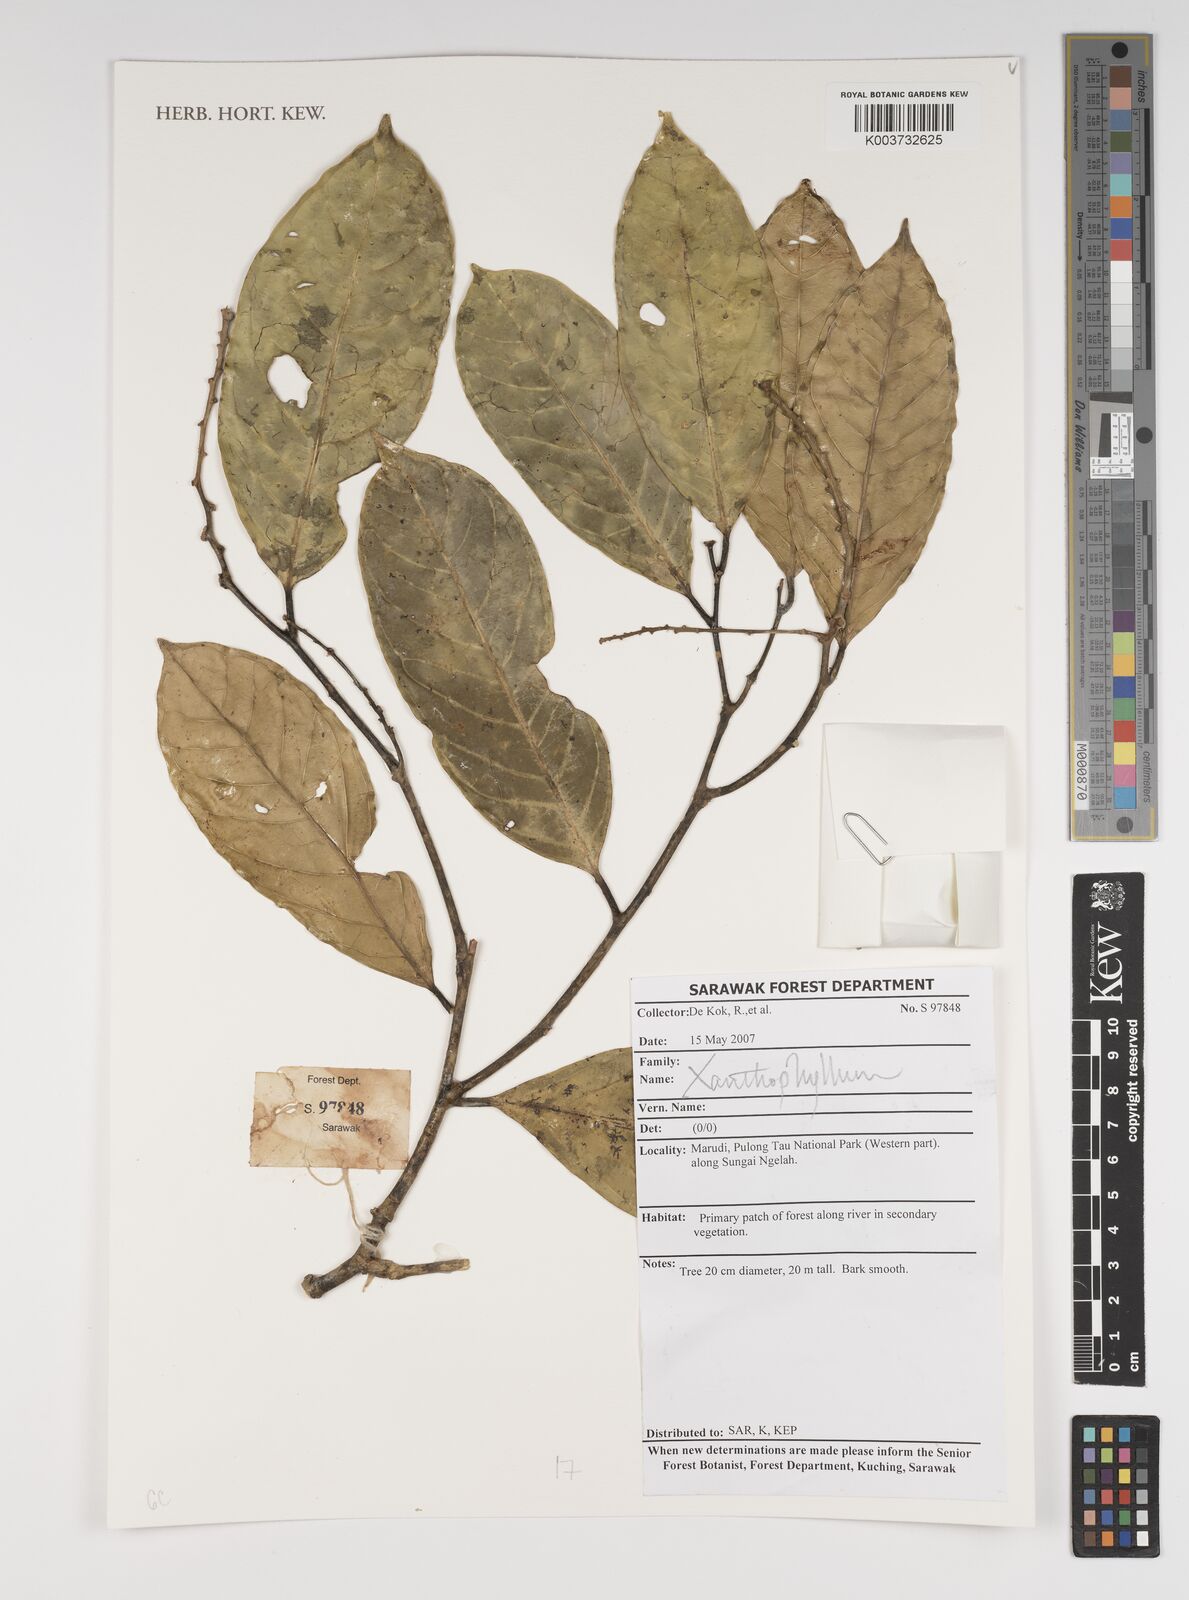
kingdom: Plantae
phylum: Tracheophyta
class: Magnoliopsida
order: Fabales
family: Polygalaceae
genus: Xanthophyllum
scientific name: Xanthophyllum
